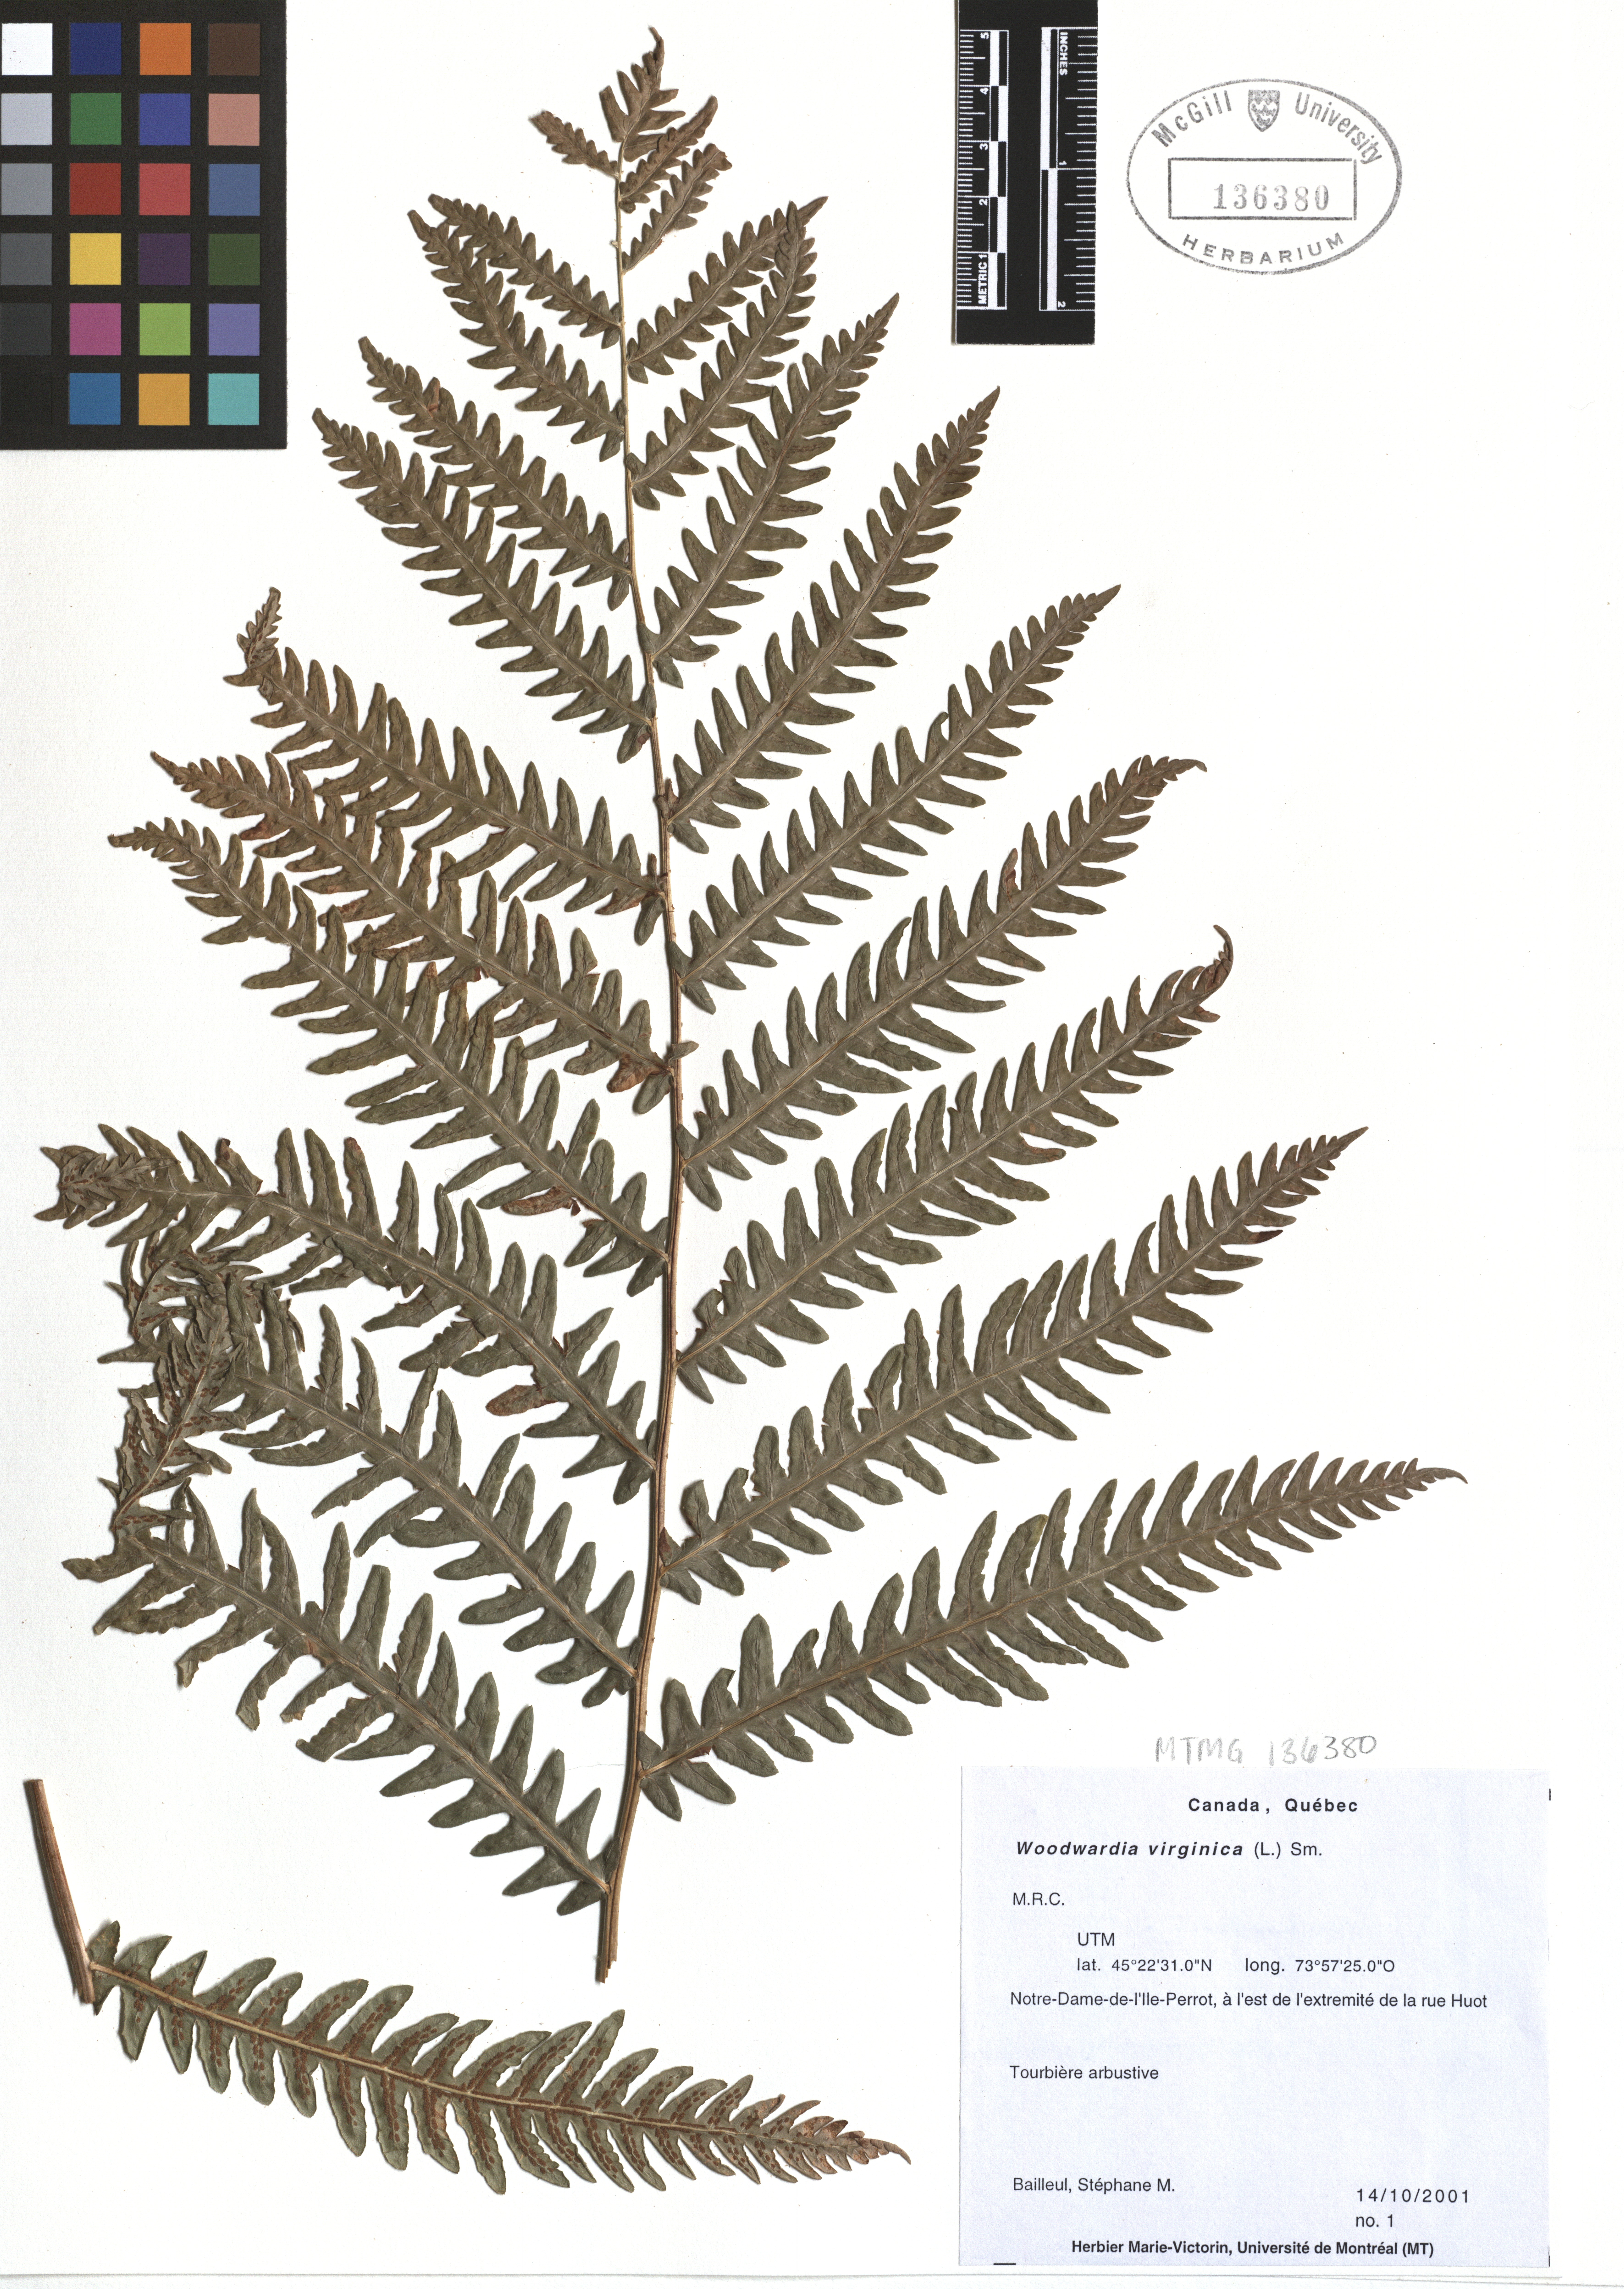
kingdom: Plantae
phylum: Tracheophyta
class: Polypodiopsida
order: Polypodiales
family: Blechnaceae
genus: Anchistea
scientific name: Anchistea virginica
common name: Virginia chain fern
